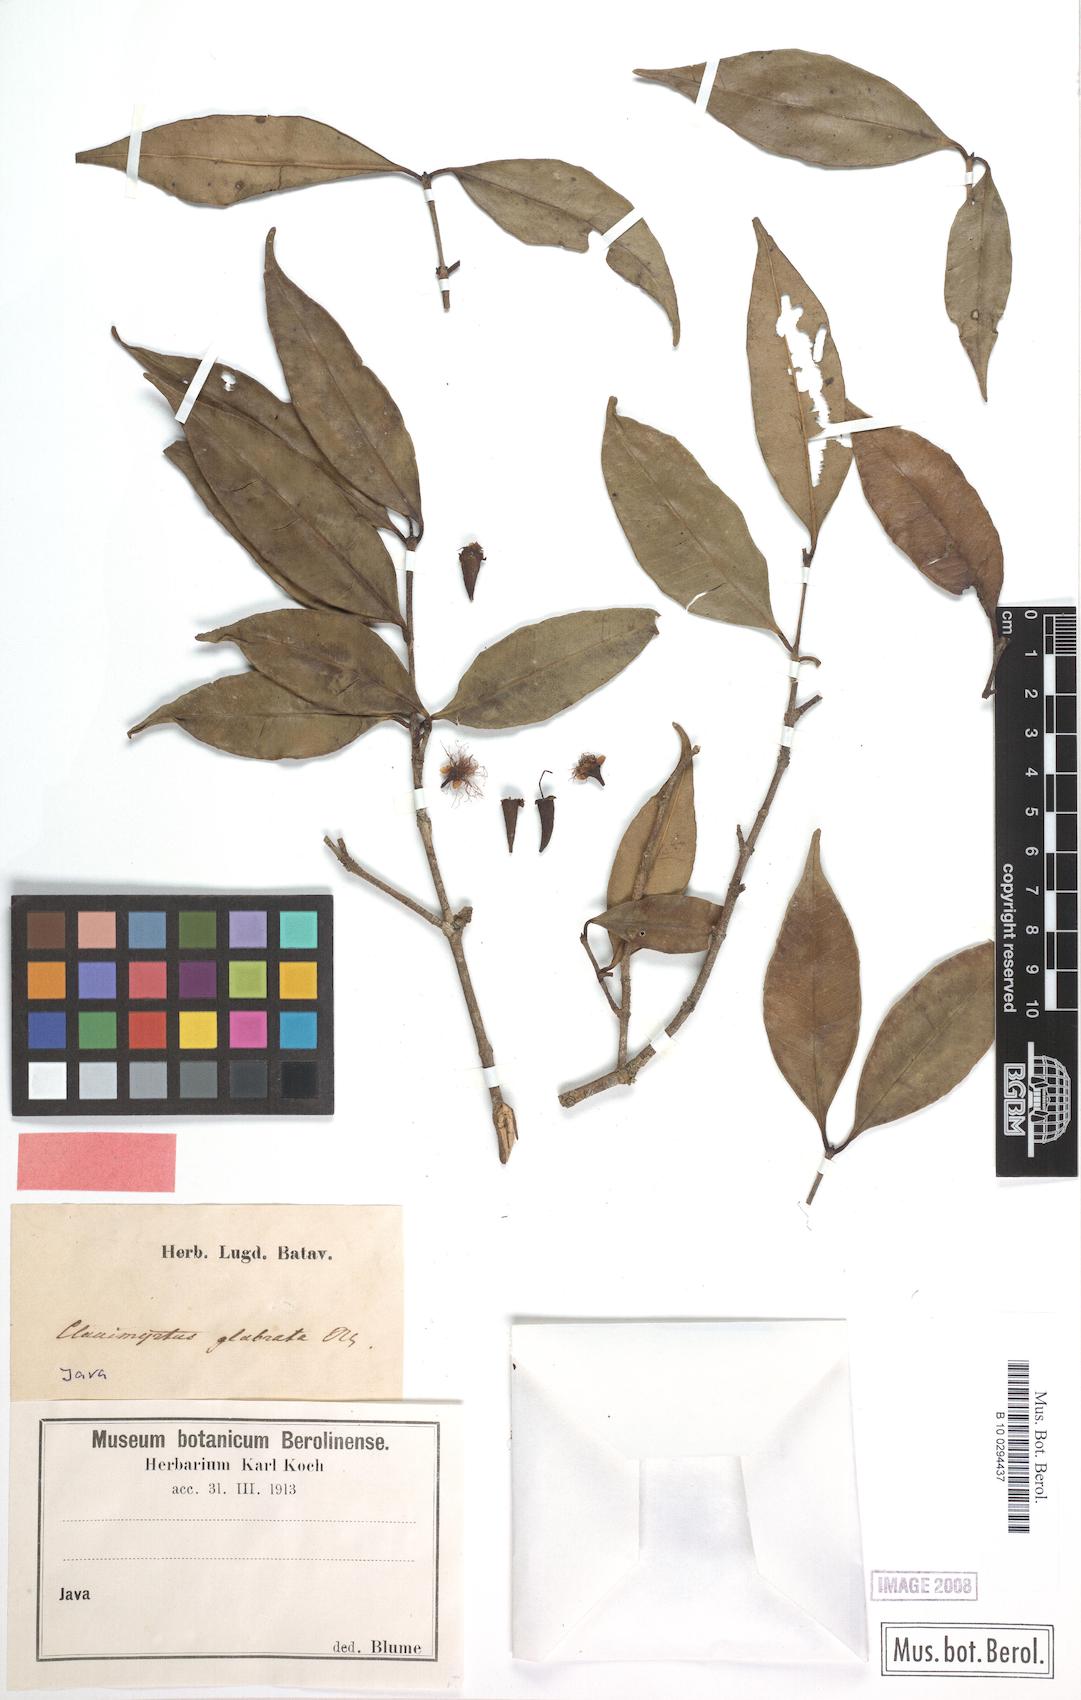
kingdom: Plantae
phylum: Tracheophyta
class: Magnoliopsida
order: Myrtales
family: Myrtaceae
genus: Syzygium
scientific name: Syzygium glabratum
